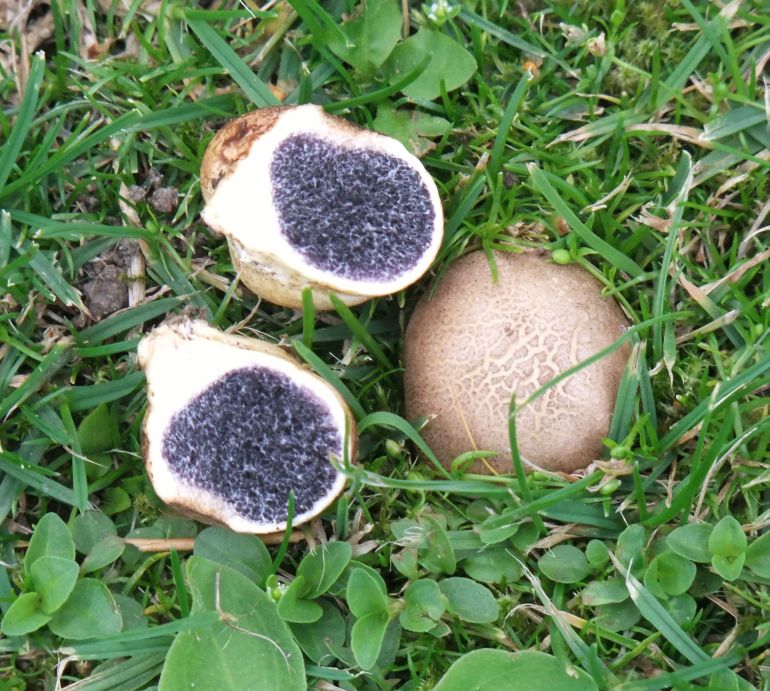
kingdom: Fungi
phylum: Basidiomycota
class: Agaricomycetes
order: Boletales
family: Sclerodermataceae
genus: Scleroderma
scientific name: Scleroderma bovista
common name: bovist-bruskbold
